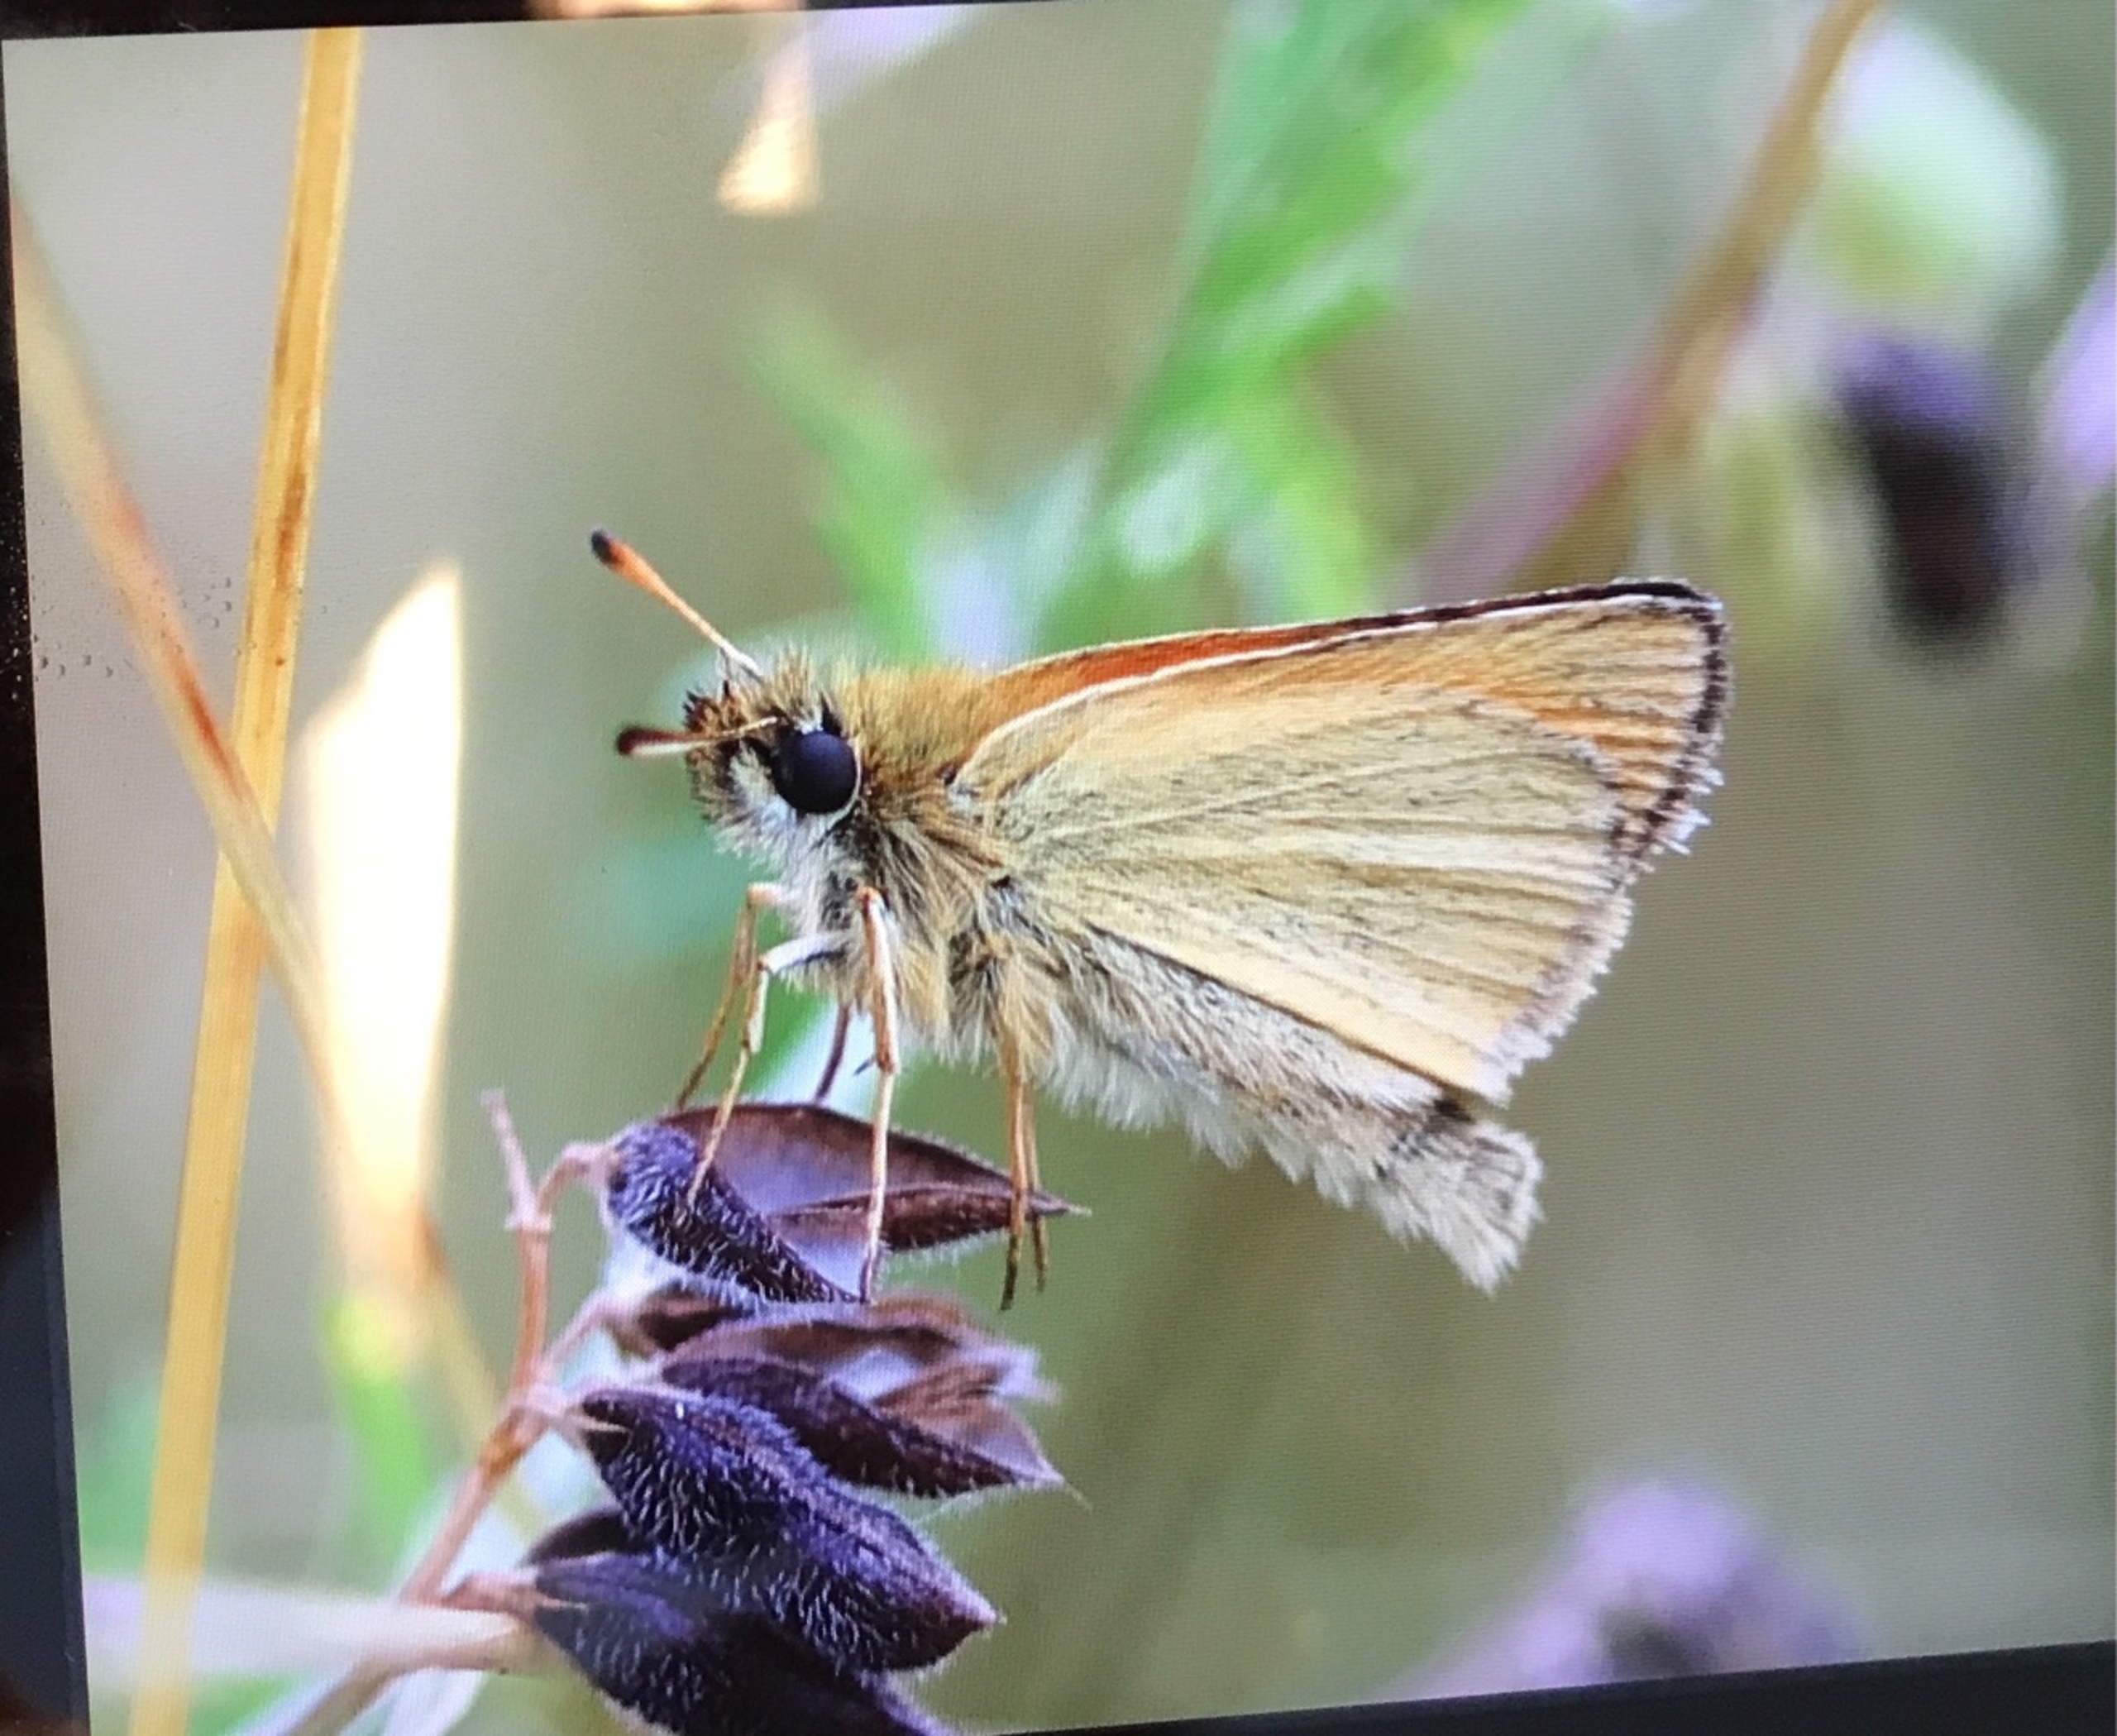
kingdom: Animalia
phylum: Arthropoda
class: Insecta
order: Lepidoptera
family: Hesperiidae
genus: Thymelicus
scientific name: Thymelicus lineola
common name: Stregbredpande
